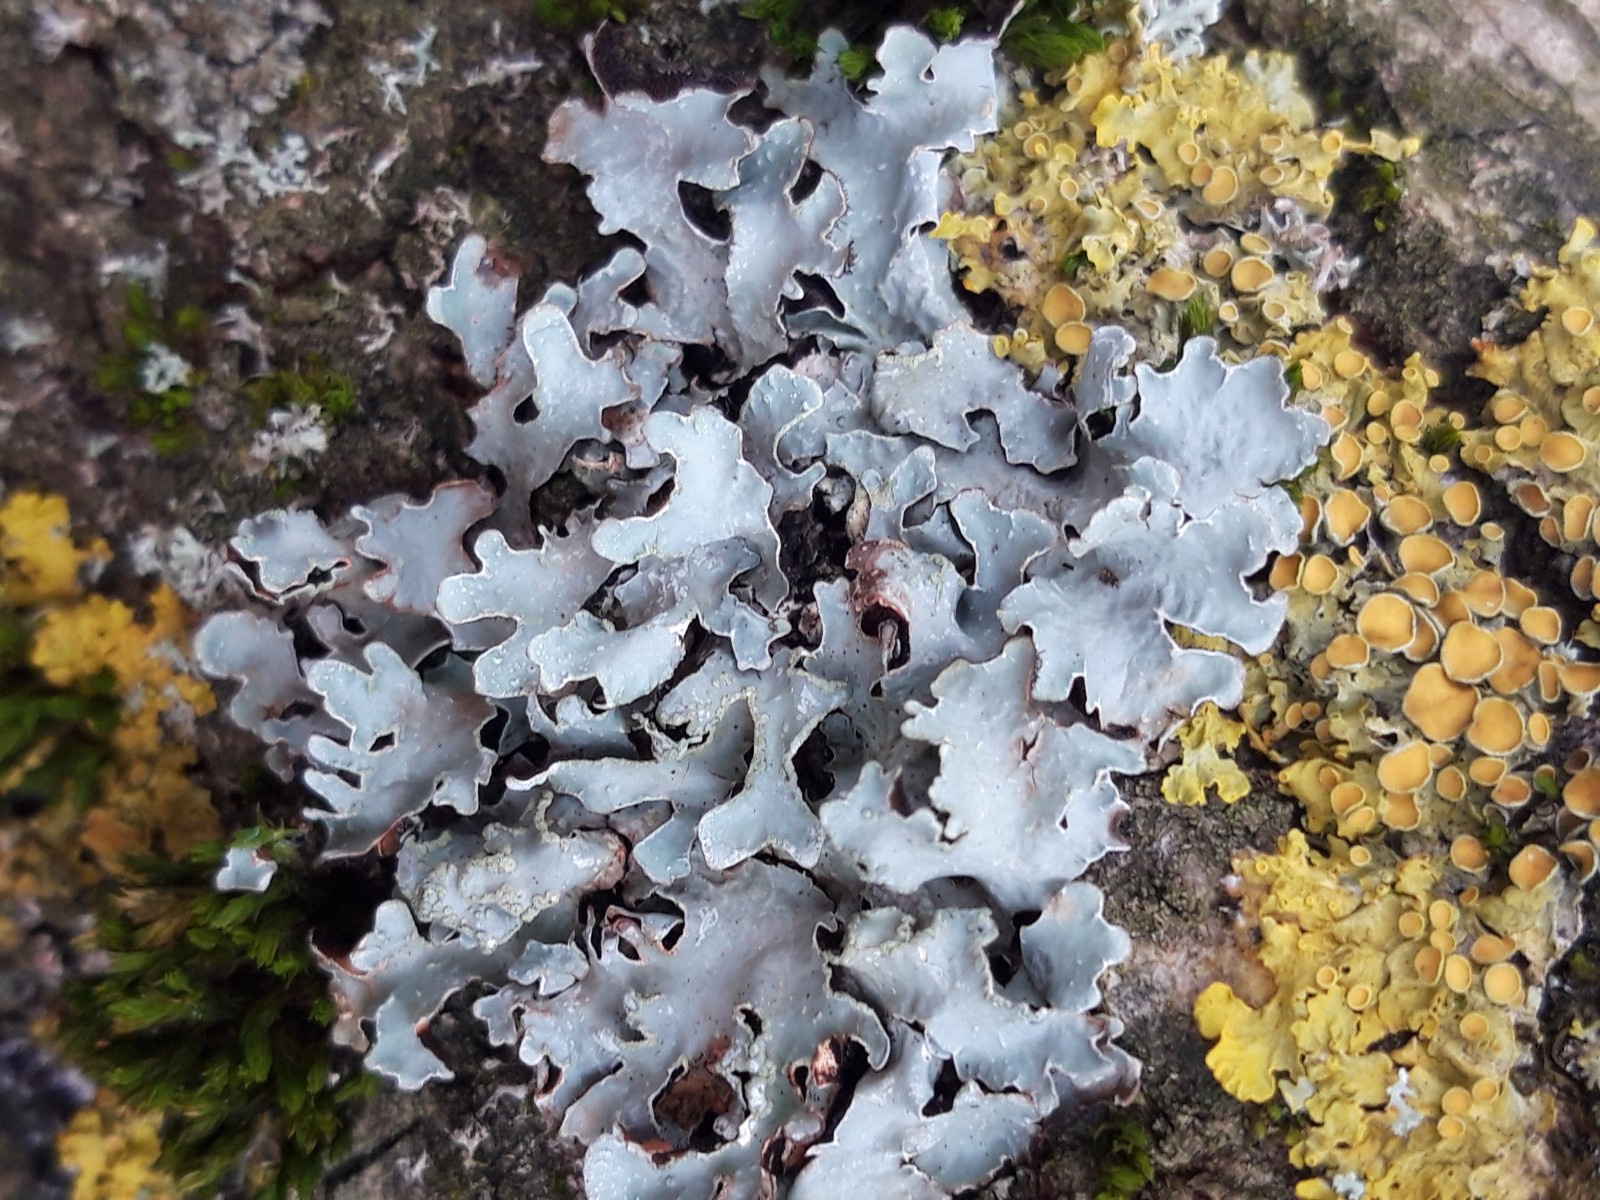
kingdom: Fungi
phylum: Ascomycota
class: Lecanoromycetes
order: Lecanorales
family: Parmeliaceae
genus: Parmelia
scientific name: Parmelia sulcata
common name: rynket skållav
